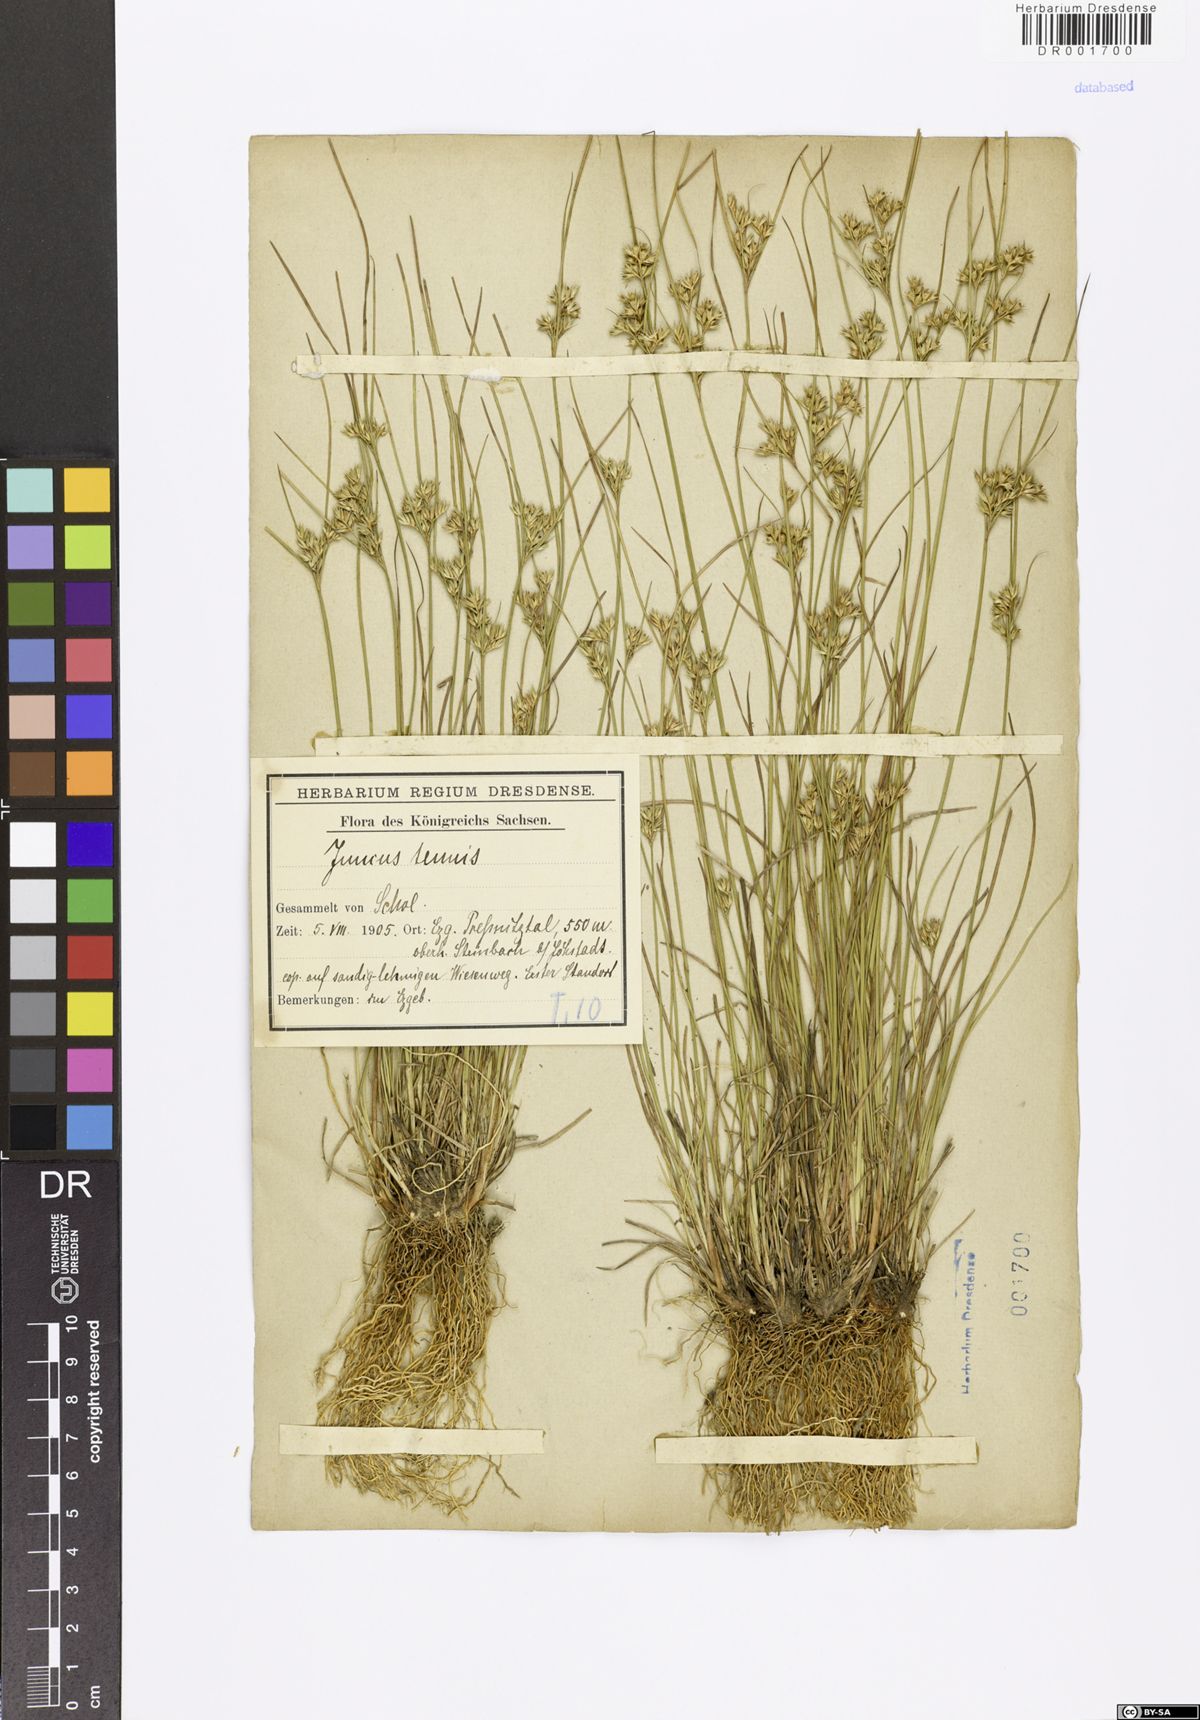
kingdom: Plantae
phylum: Tracheophyta
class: Liliopsida
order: Poales
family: Juncaceae
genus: Juncus
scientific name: Juncus tenuis
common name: Slender rush
